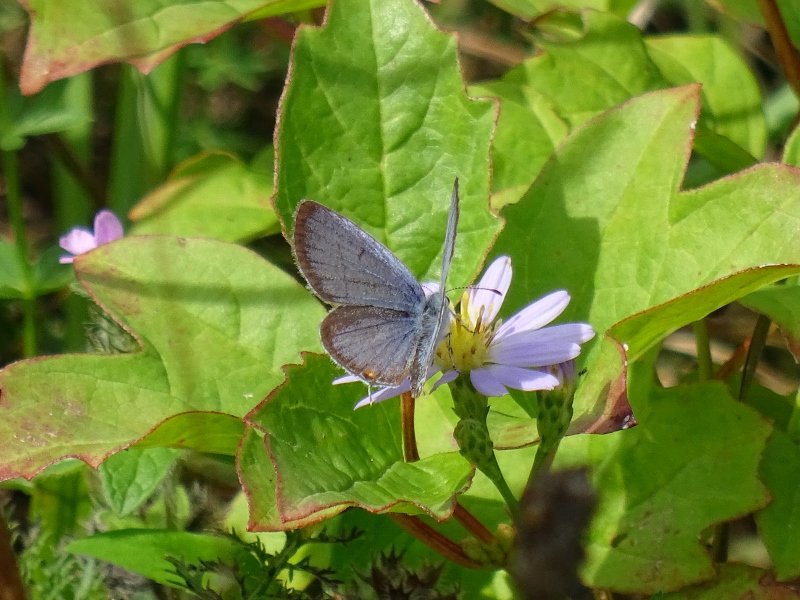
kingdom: Animalia
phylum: Arthropoda
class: Insecta
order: Lepidoptera
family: Lycaenidae
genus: Elkalyce
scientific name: Elkalyce comyntas
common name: Eastern Tailed-Blue
